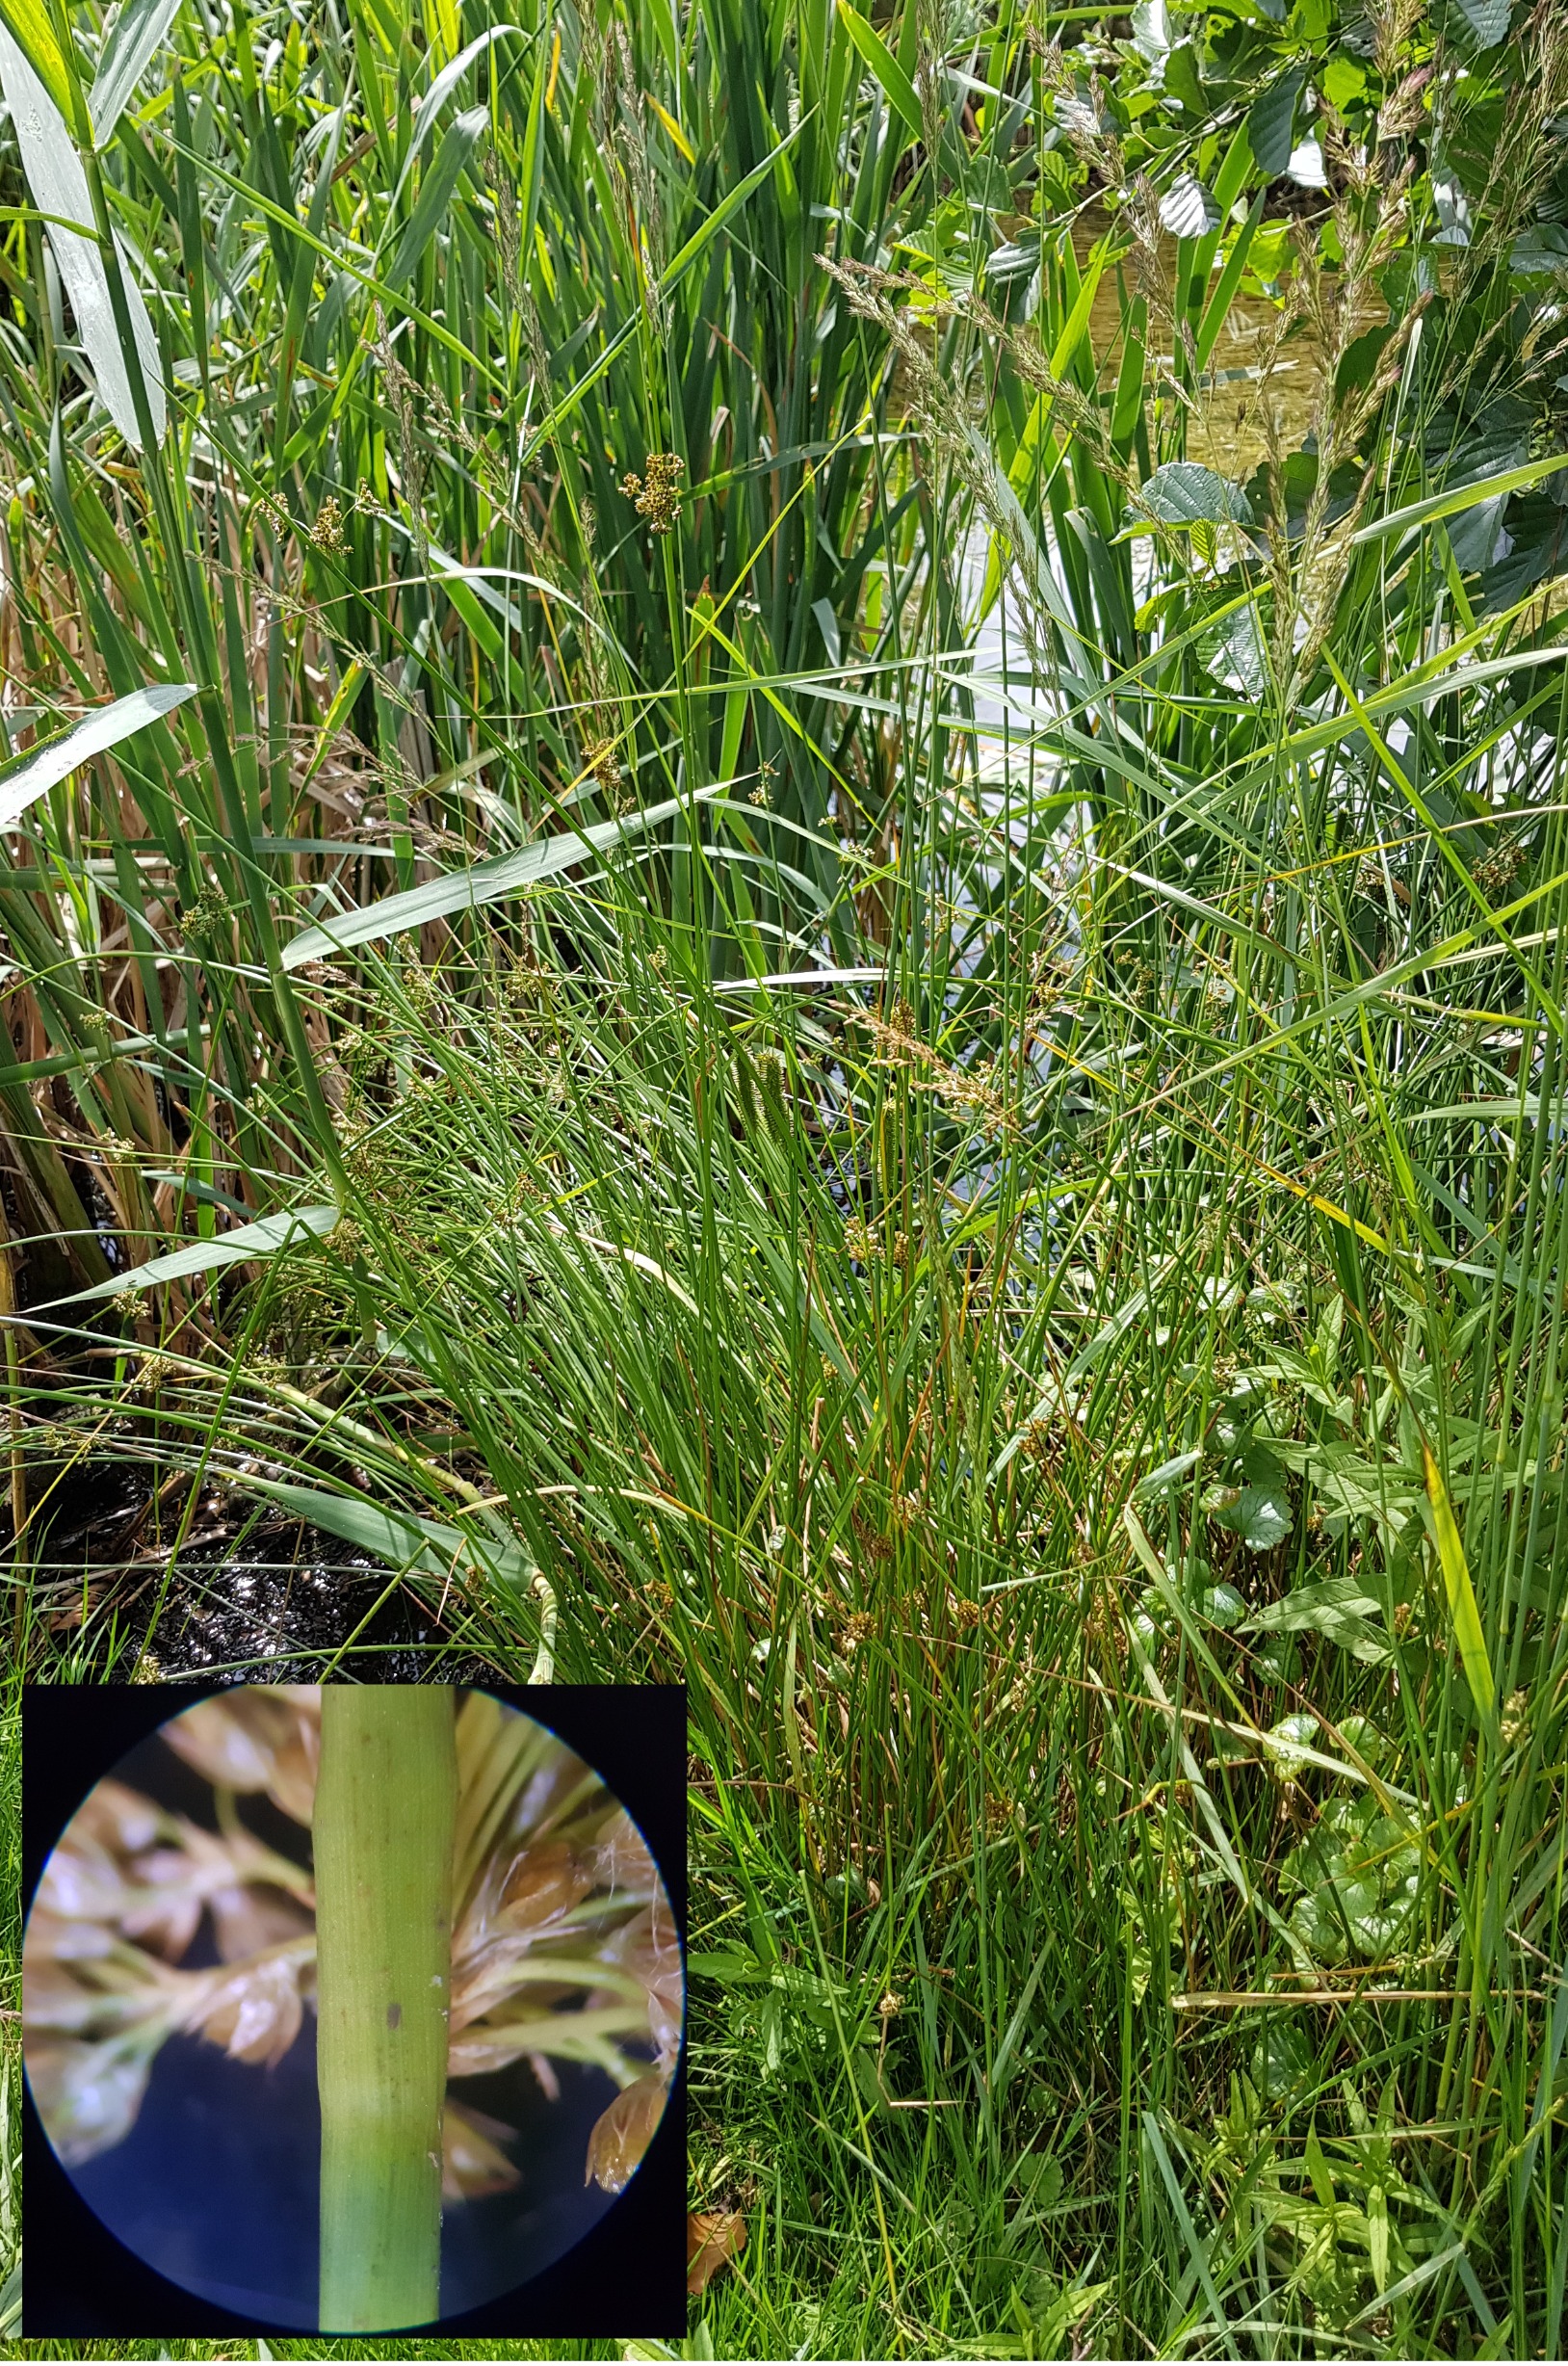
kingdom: Plantae
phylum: Tracheophyta
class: Liliopsida
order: Poales
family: Juncaceae
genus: Juncus
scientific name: Juncus effusus
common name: Lyse-siv
